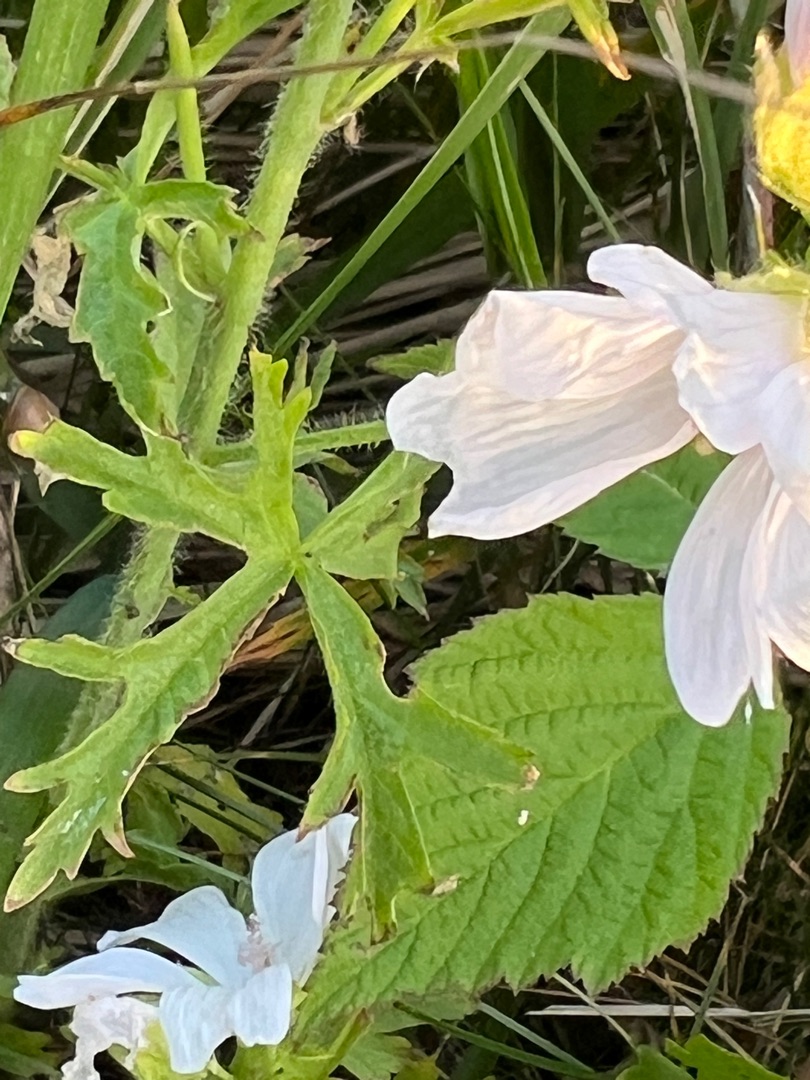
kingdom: Plantae
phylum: Tracheophyta
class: Magnoliopsida
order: Malvales
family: Malvaceae
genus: Malva
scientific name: Malva moschata
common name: Moskus-katost
